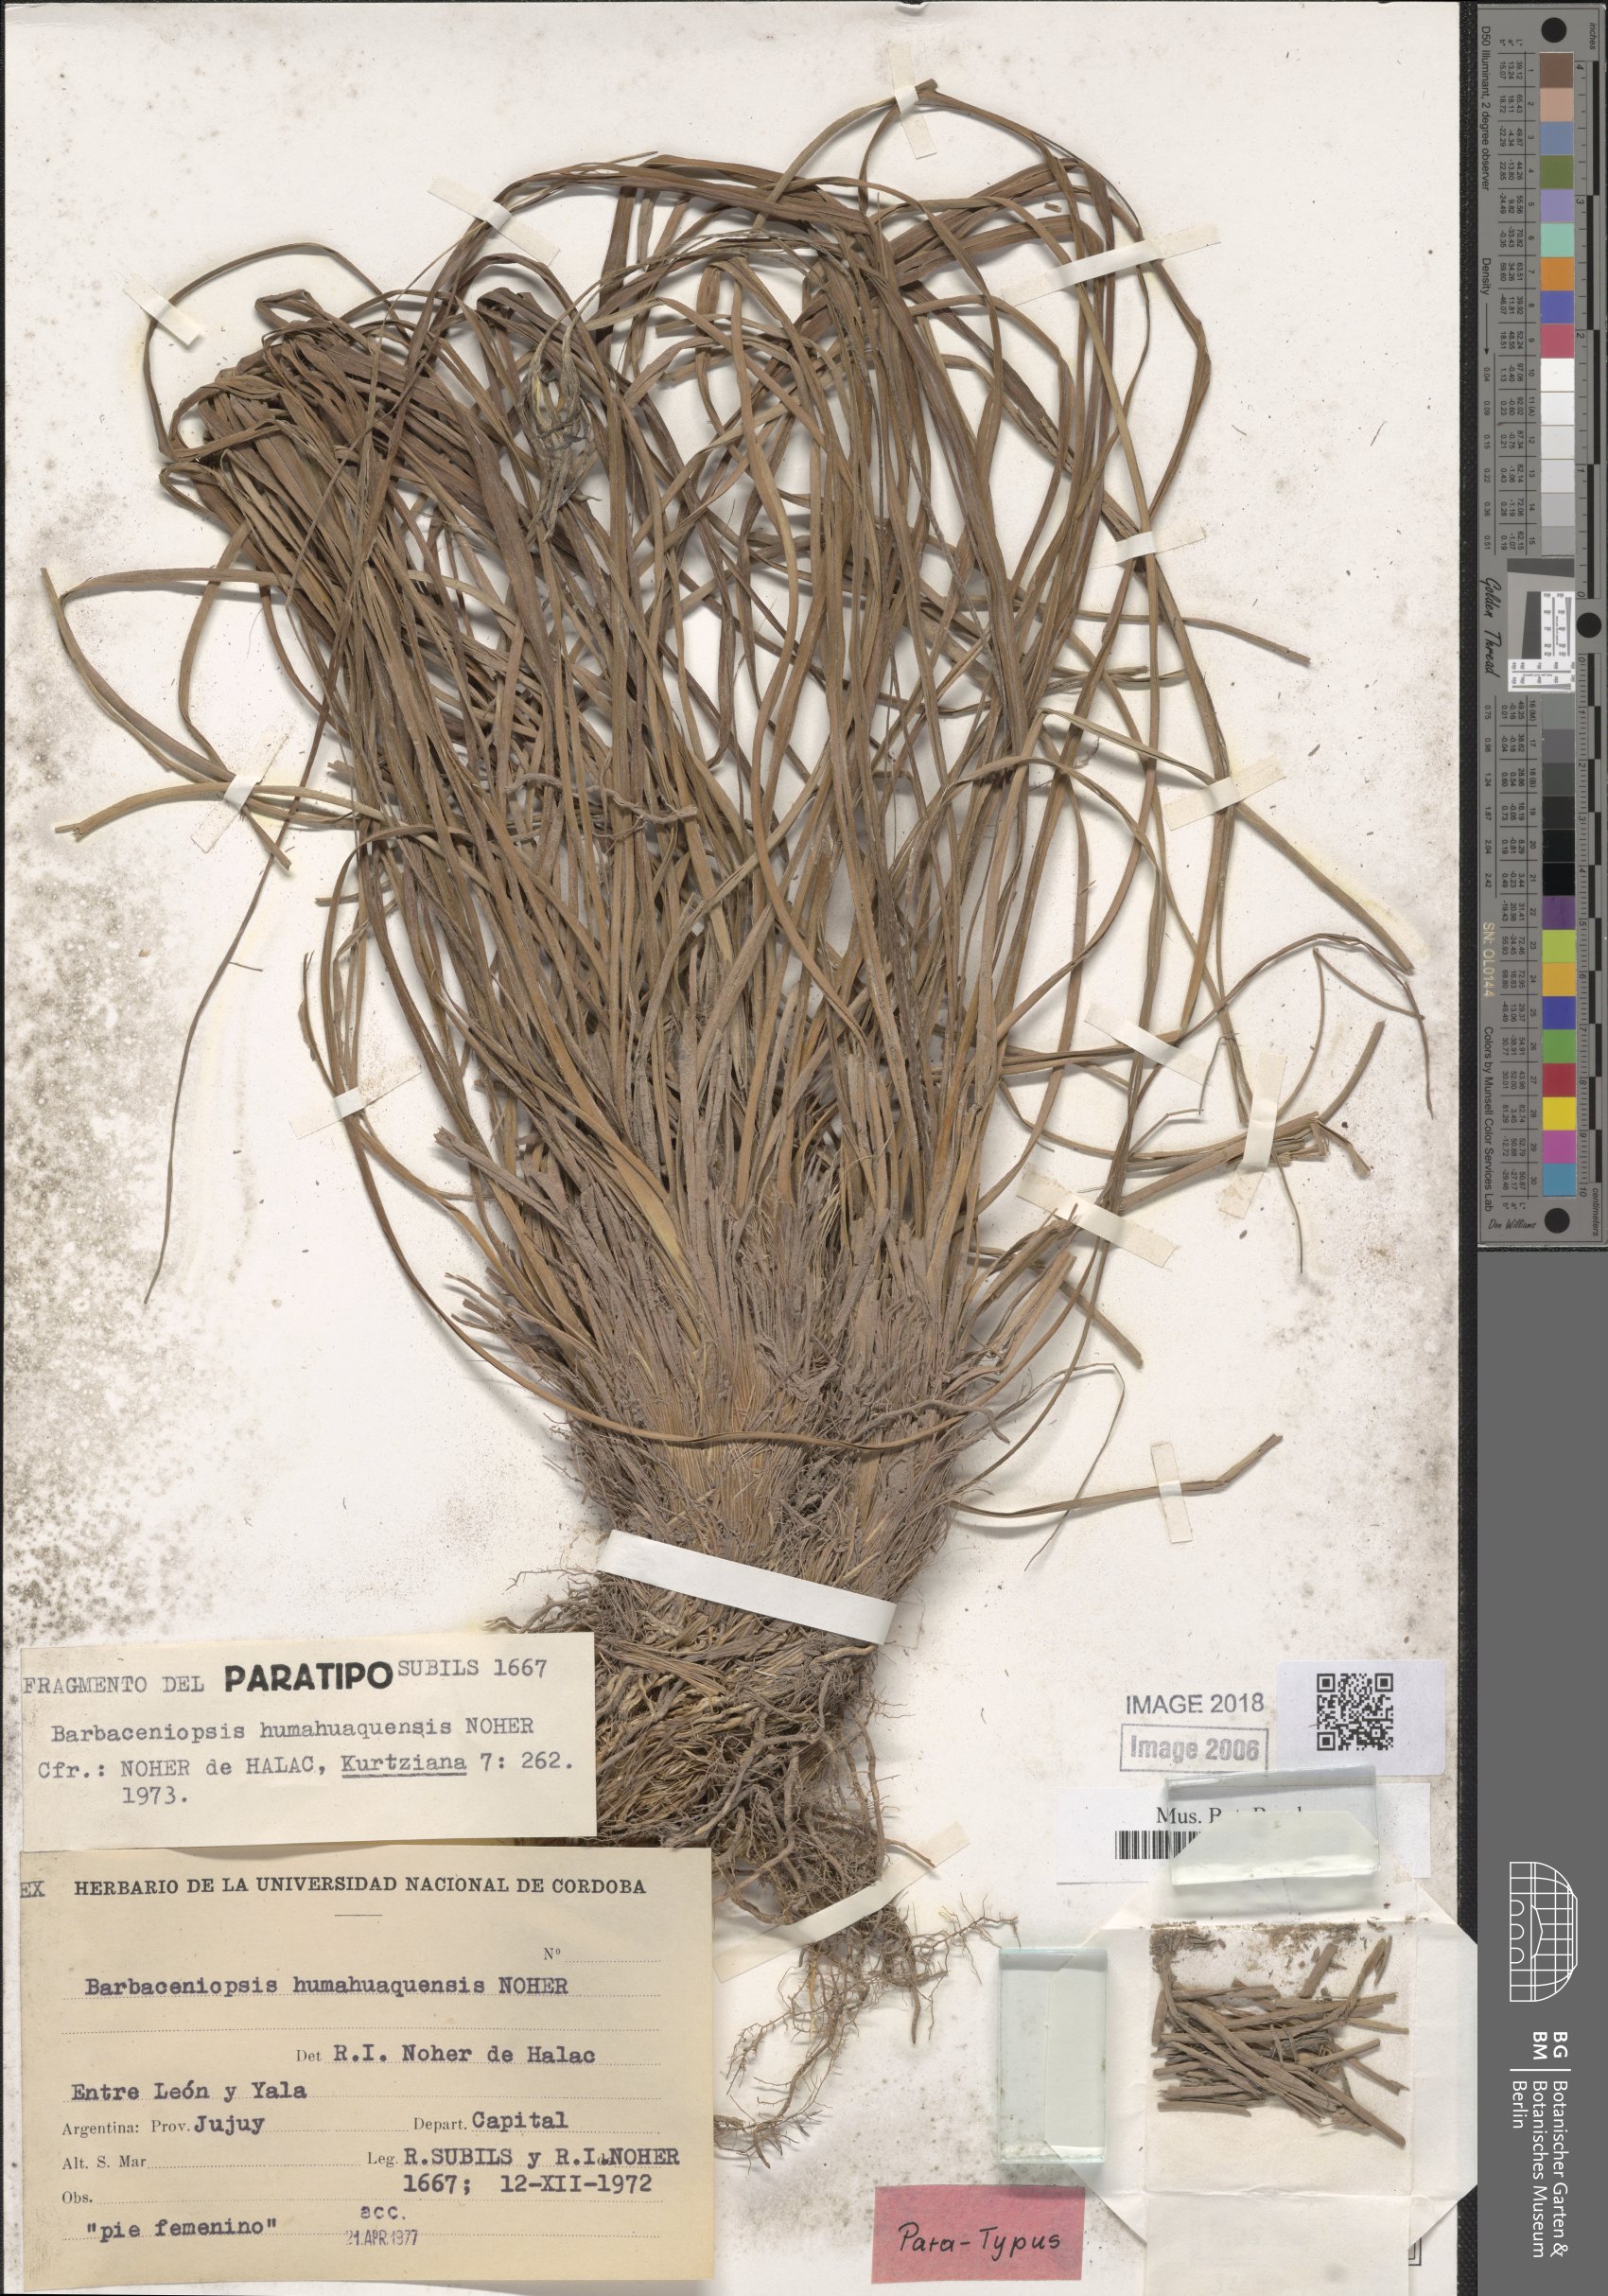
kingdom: Plantae
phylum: Tracheophyta
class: Liliopsida
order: Pandanales
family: Velloziaceae
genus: Barbaceniopsis
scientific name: Barbaceniopsis humahuaquensis
